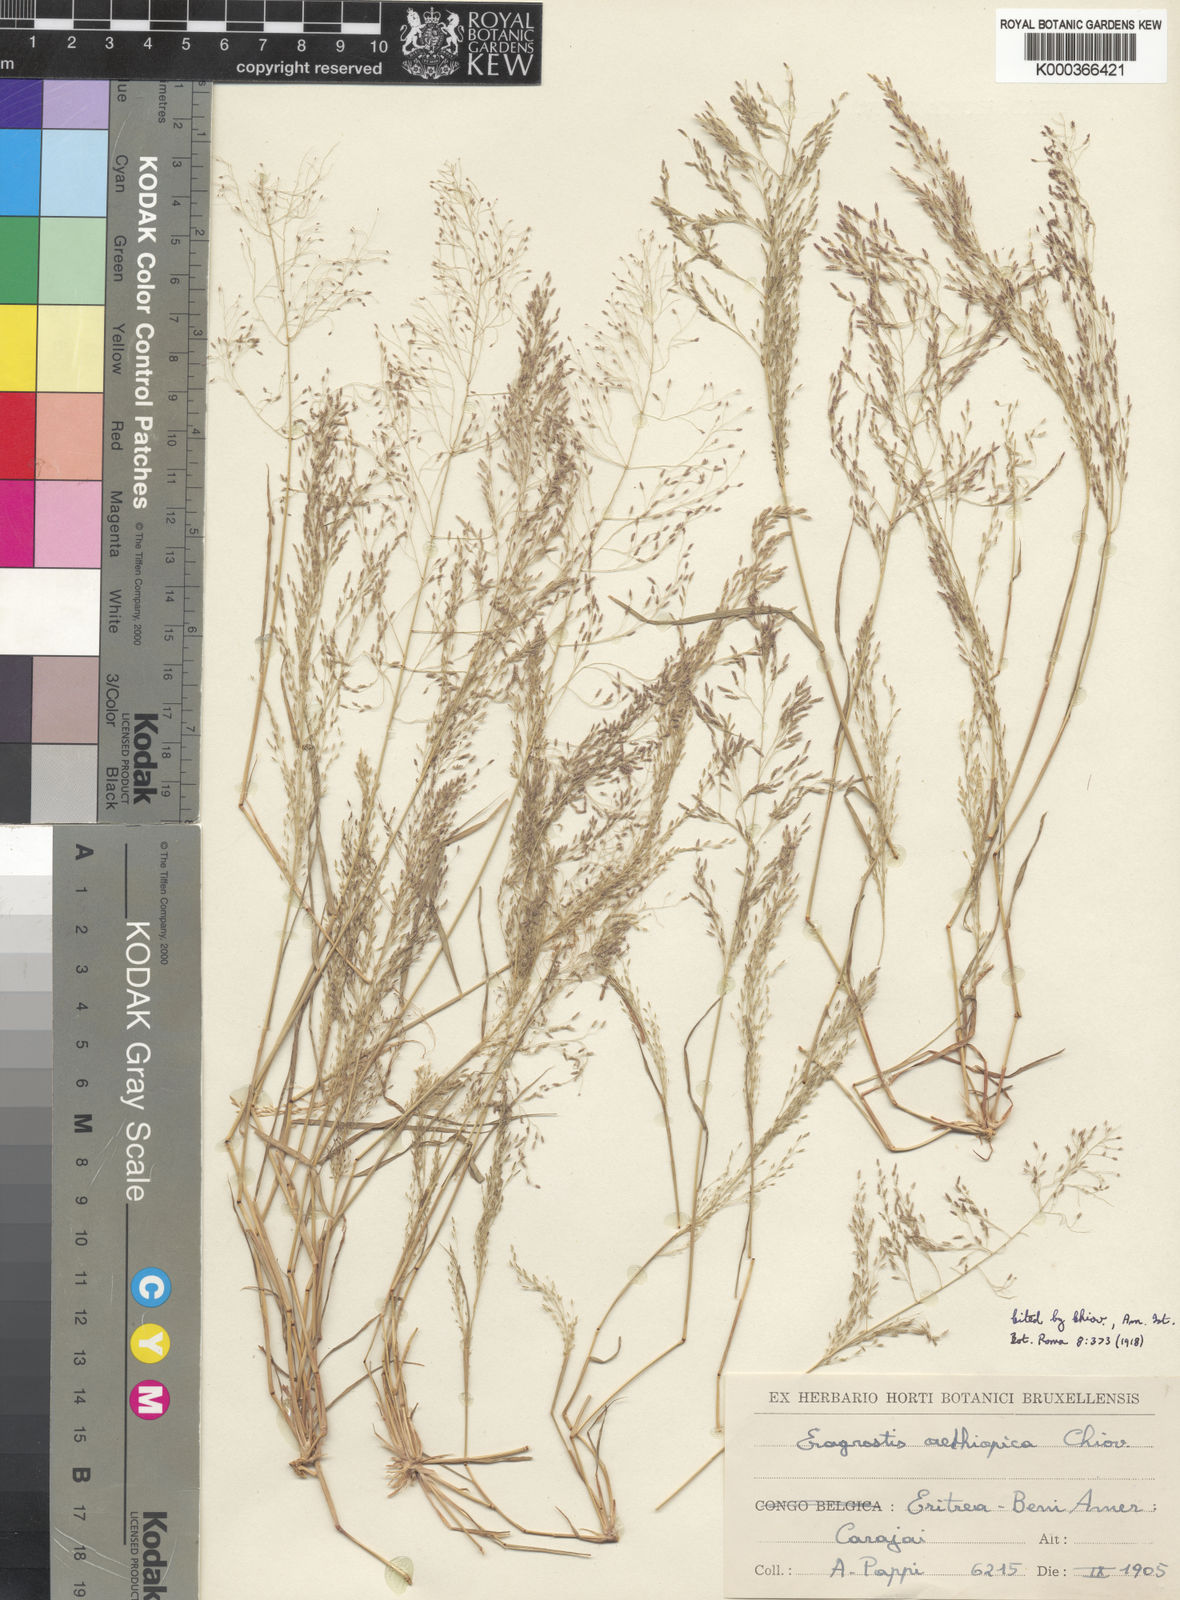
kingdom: Plantae
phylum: Tracheophyta
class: Liliopsida
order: Poales
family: Poaceae
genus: Eragrostis
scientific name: Eragrostis aethiopica
